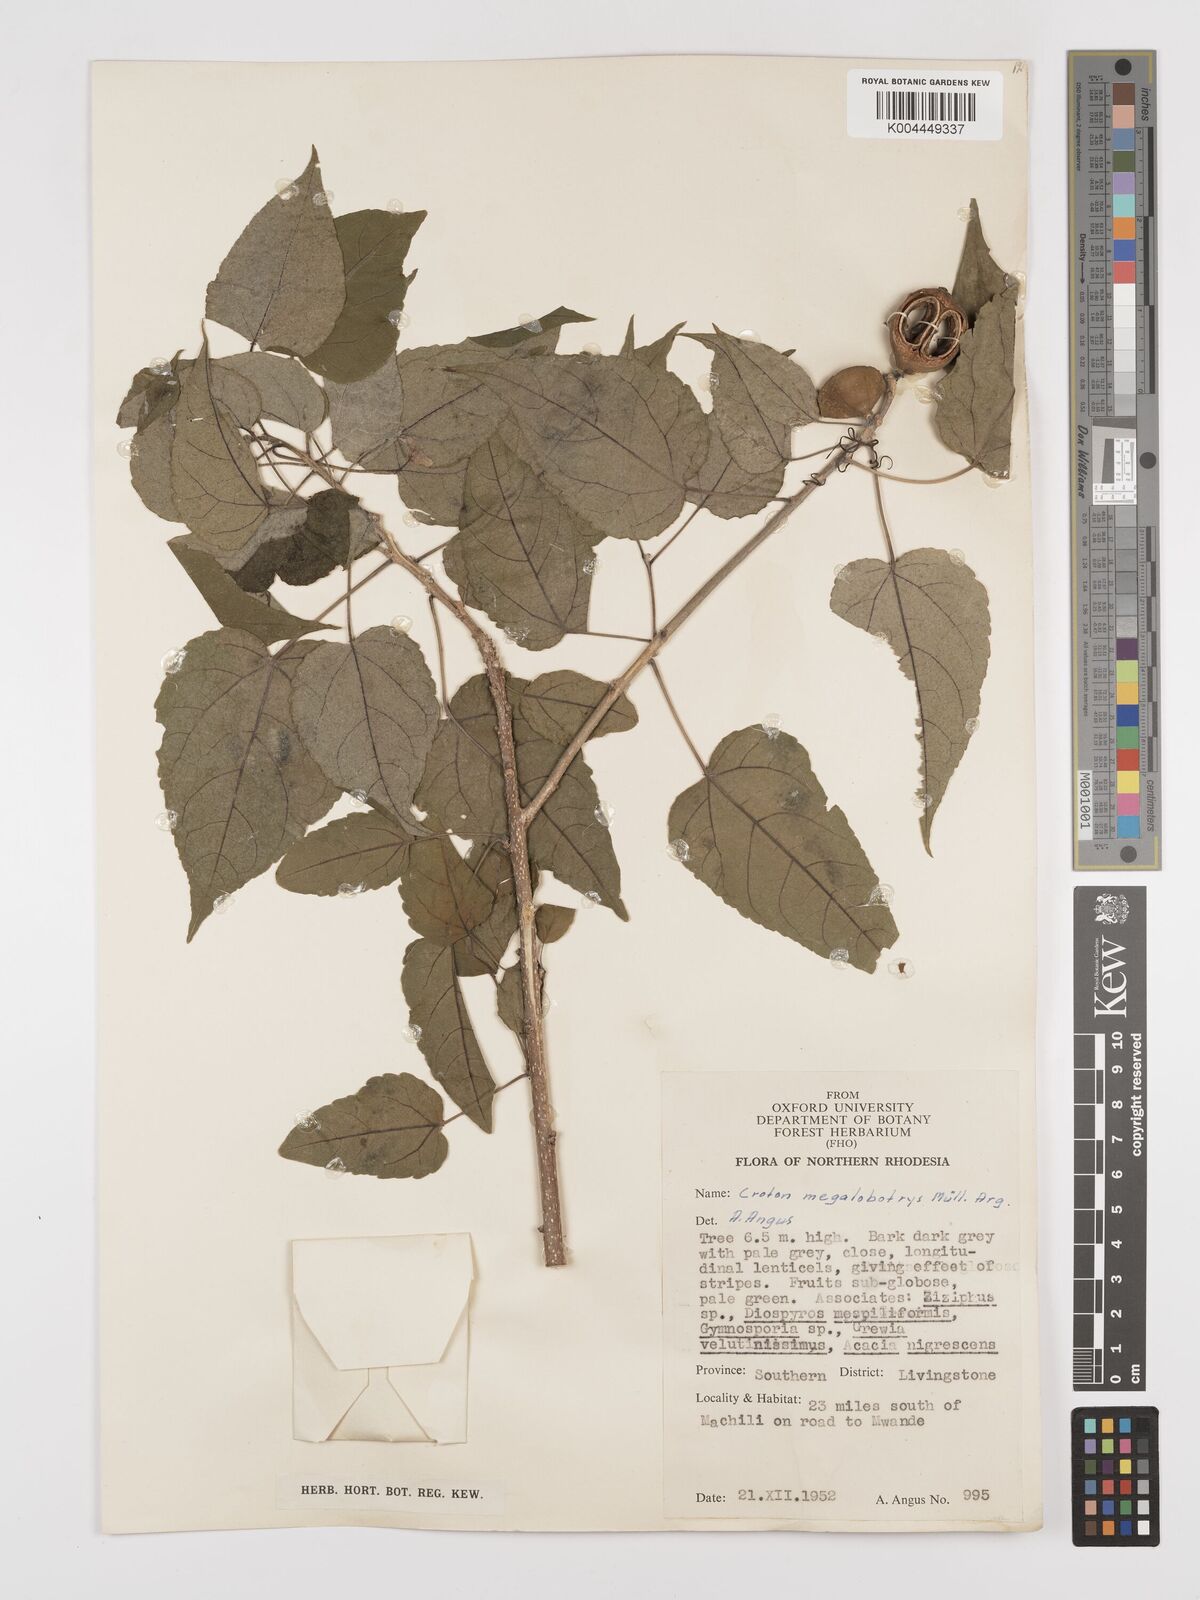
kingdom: Plantae
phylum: Tracheophyta
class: Magnoliopsida
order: Malpighiales
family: Euphorbiaceae
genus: Croton
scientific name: Croton megalobotrys
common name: Large fever berry
